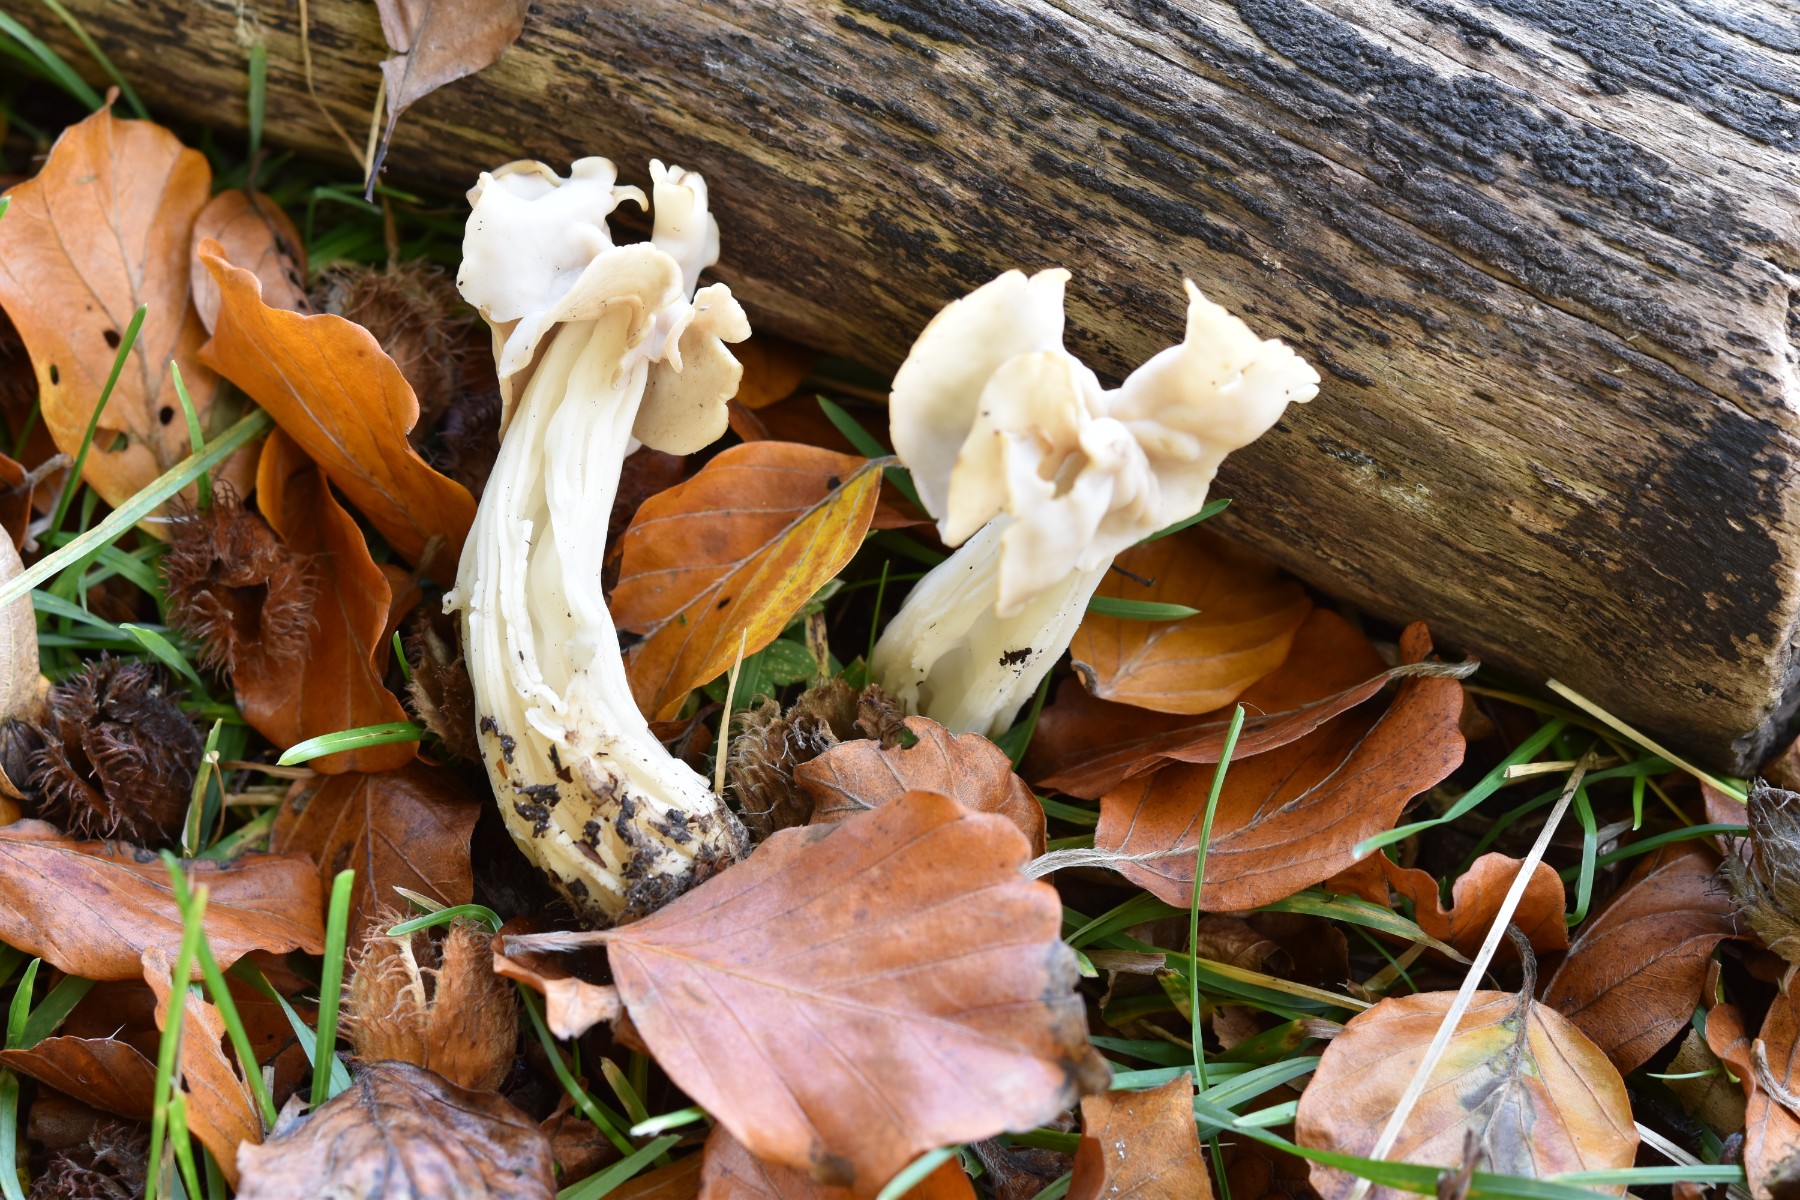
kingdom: Fungi
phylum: Ascomycota
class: Pezizomycetes
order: Pezizales
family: Helvellaceae
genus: Helvella
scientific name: Helvella crispa
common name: kruset foldhat
